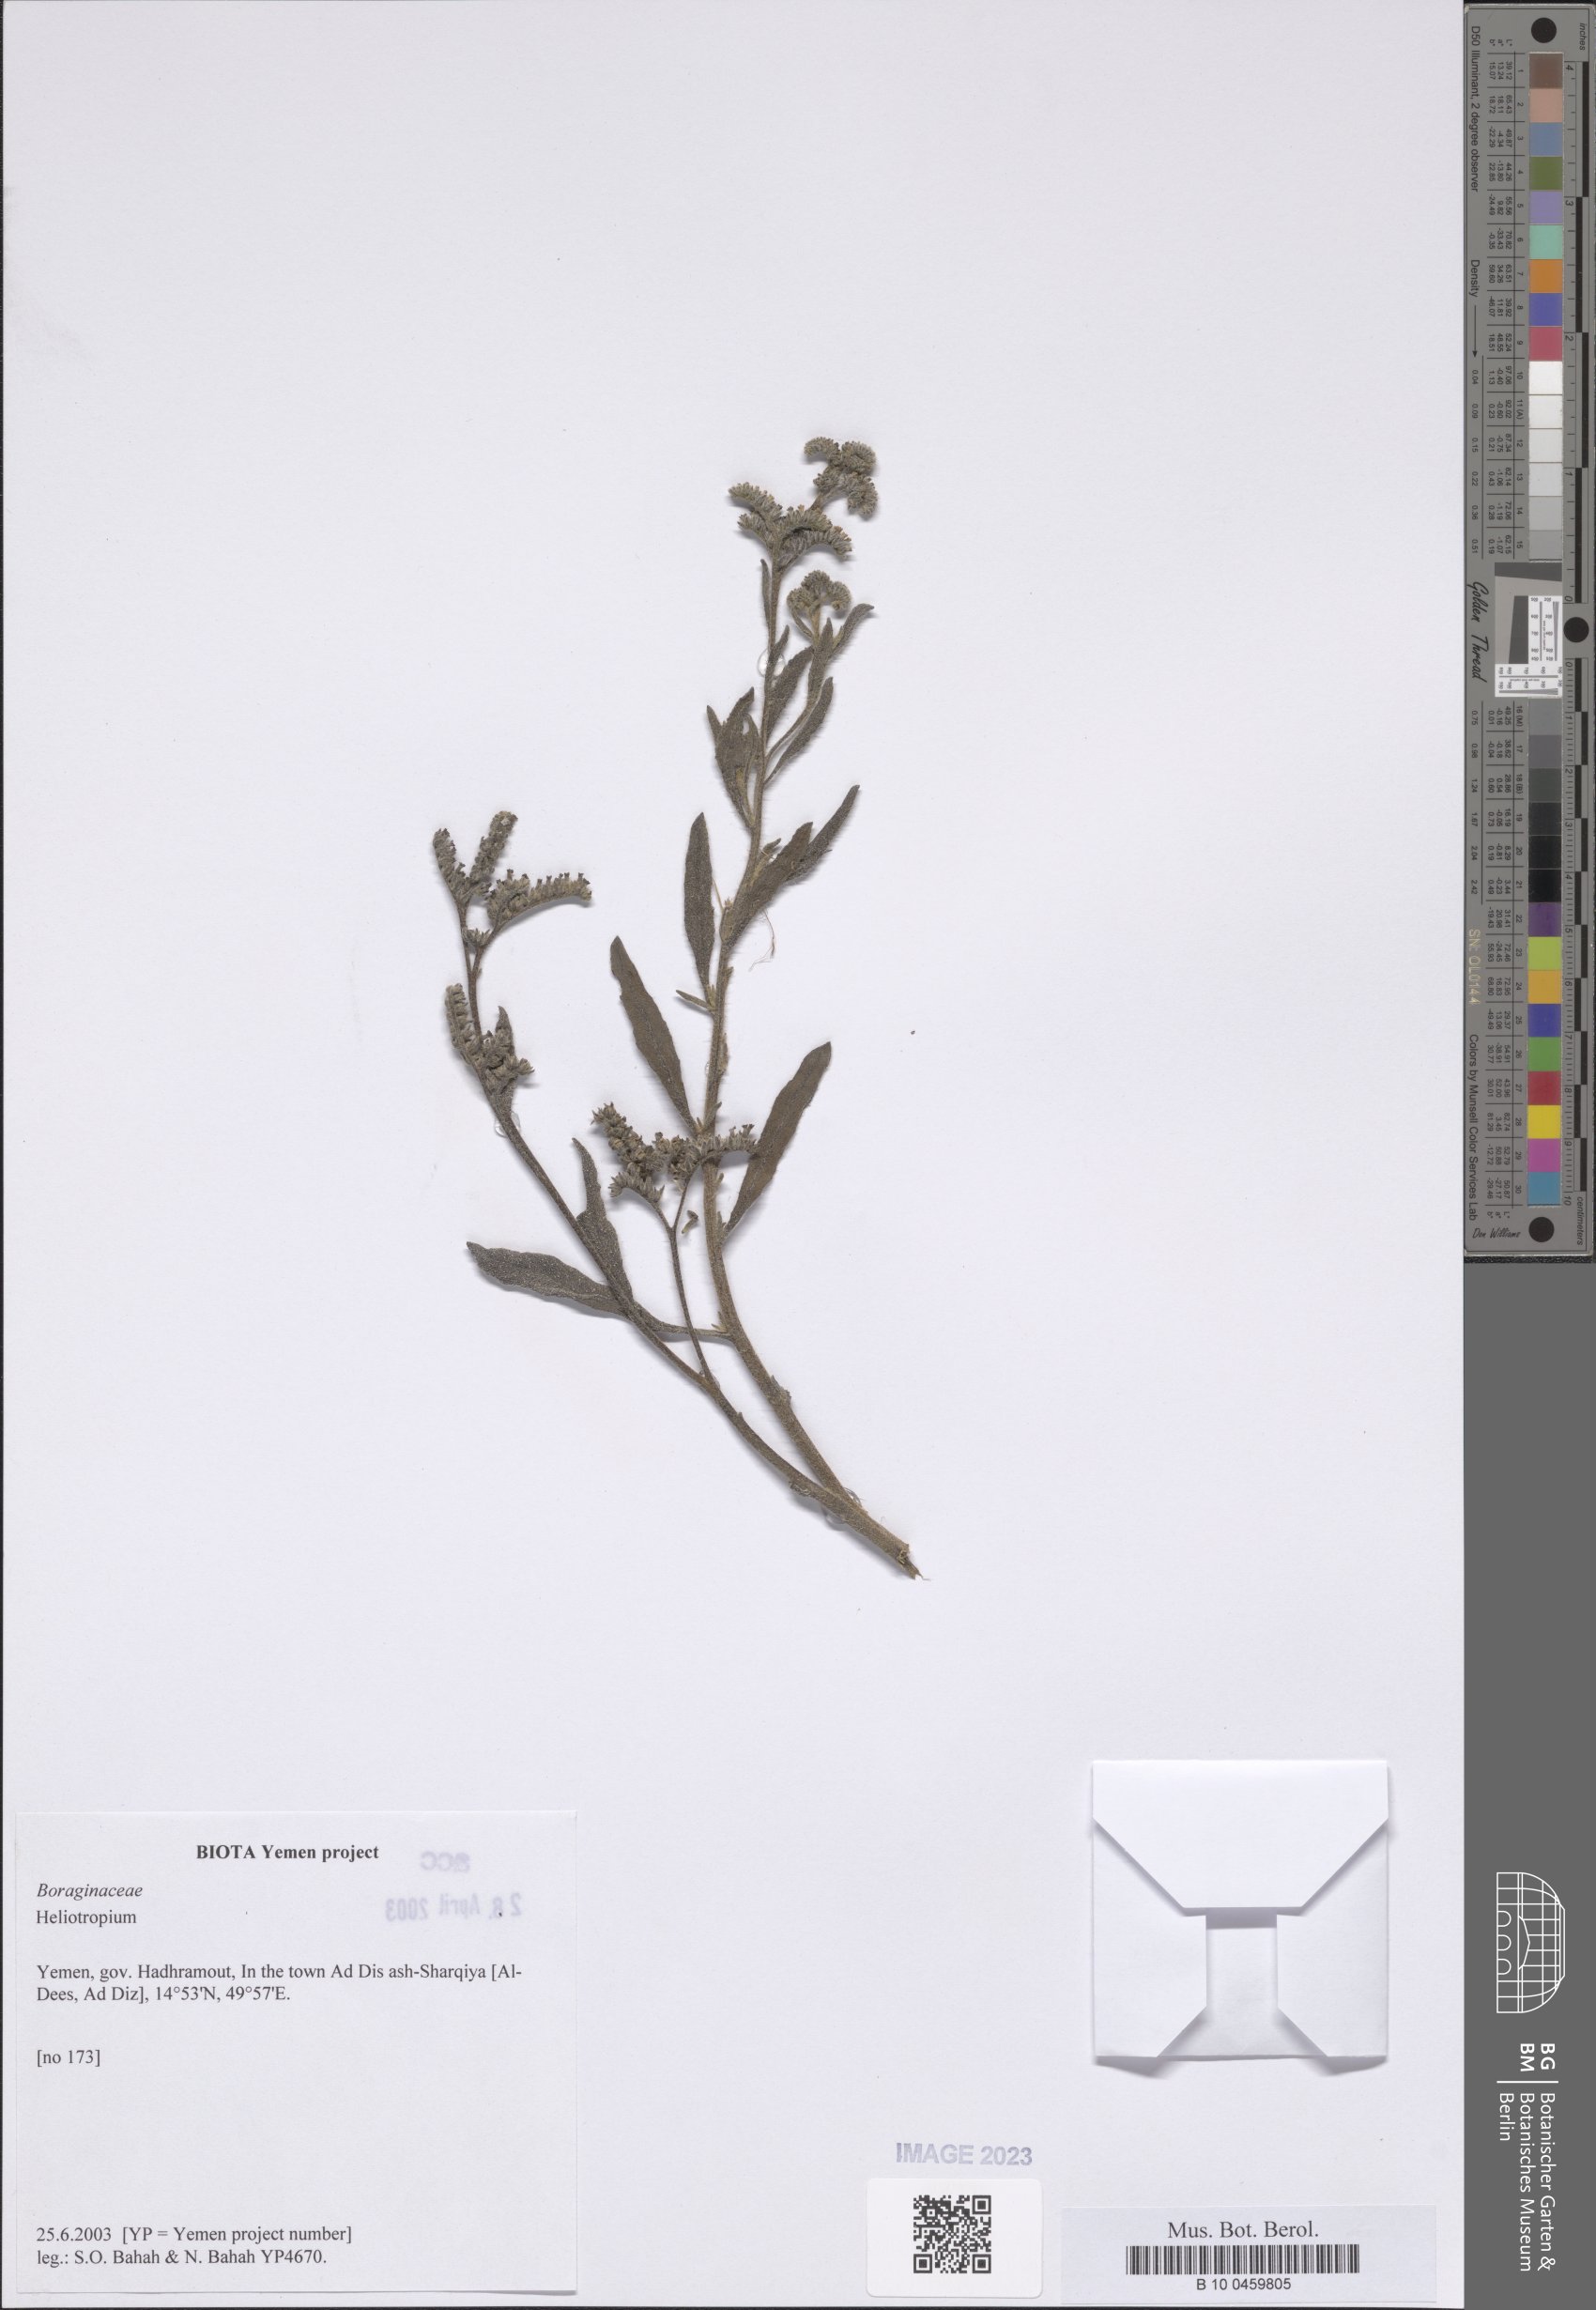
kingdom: Plantae
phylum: Tracheophyta
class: Magnoliopsida
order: Boraginales
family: Heliotropiaceae
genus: Heliotropium
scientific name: Heliotropium
